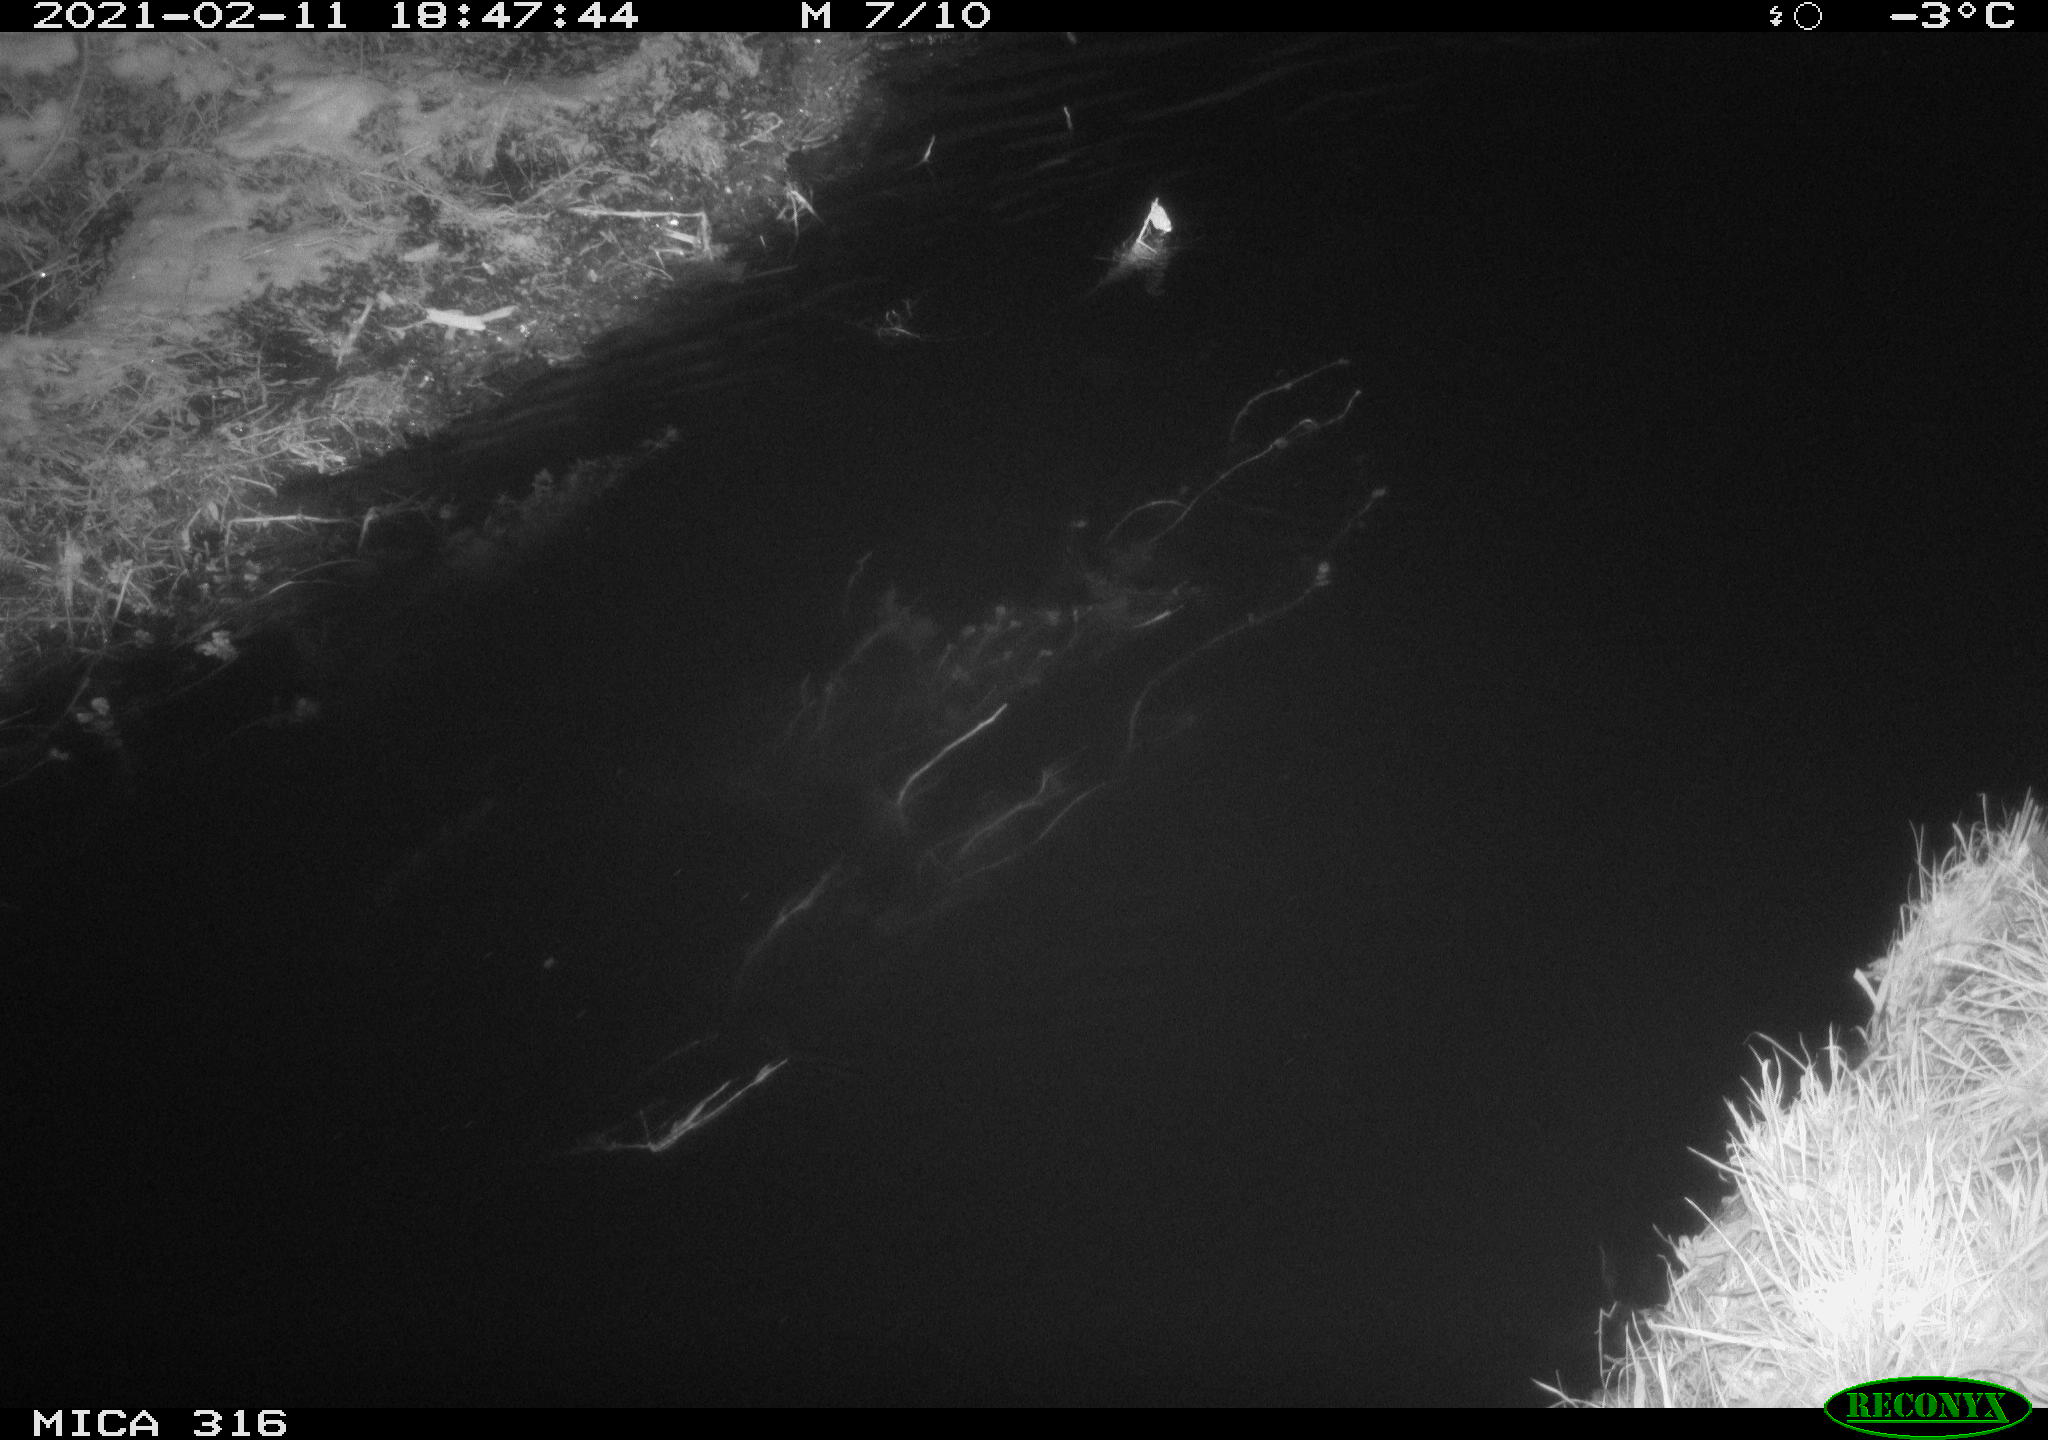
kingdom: Animalia
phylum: Chordata
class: Aves
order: Anseriformes
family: Anatidae
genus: Anas
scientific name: Anas platyrhynchos
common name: Mallard
